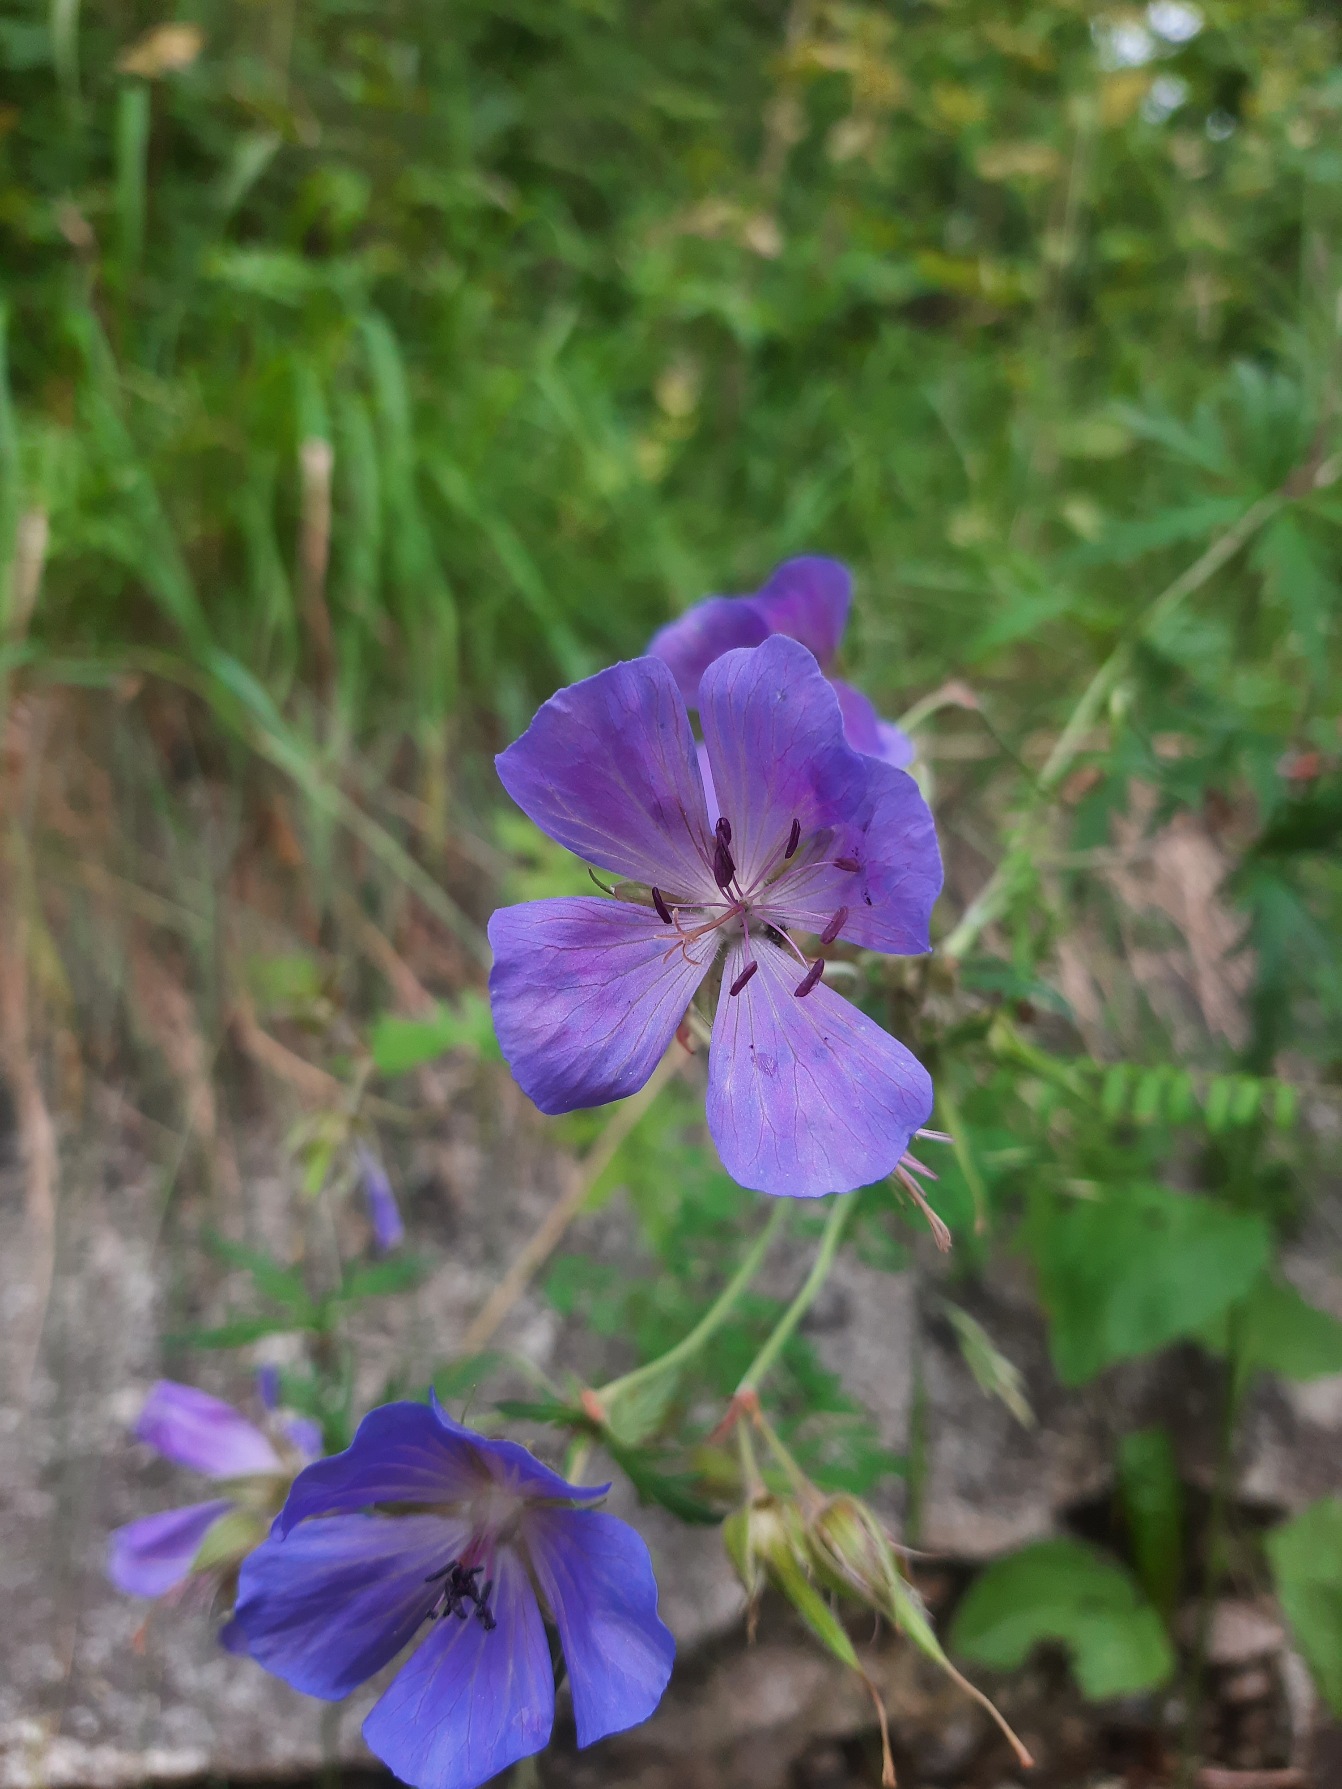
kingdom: Plantae
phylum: Tracheophyta
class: Magnoliopsida
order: Geraniales
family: Geraniaceae
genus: Geranium
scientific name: Geranium pratense
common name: Eng-storkenæb
